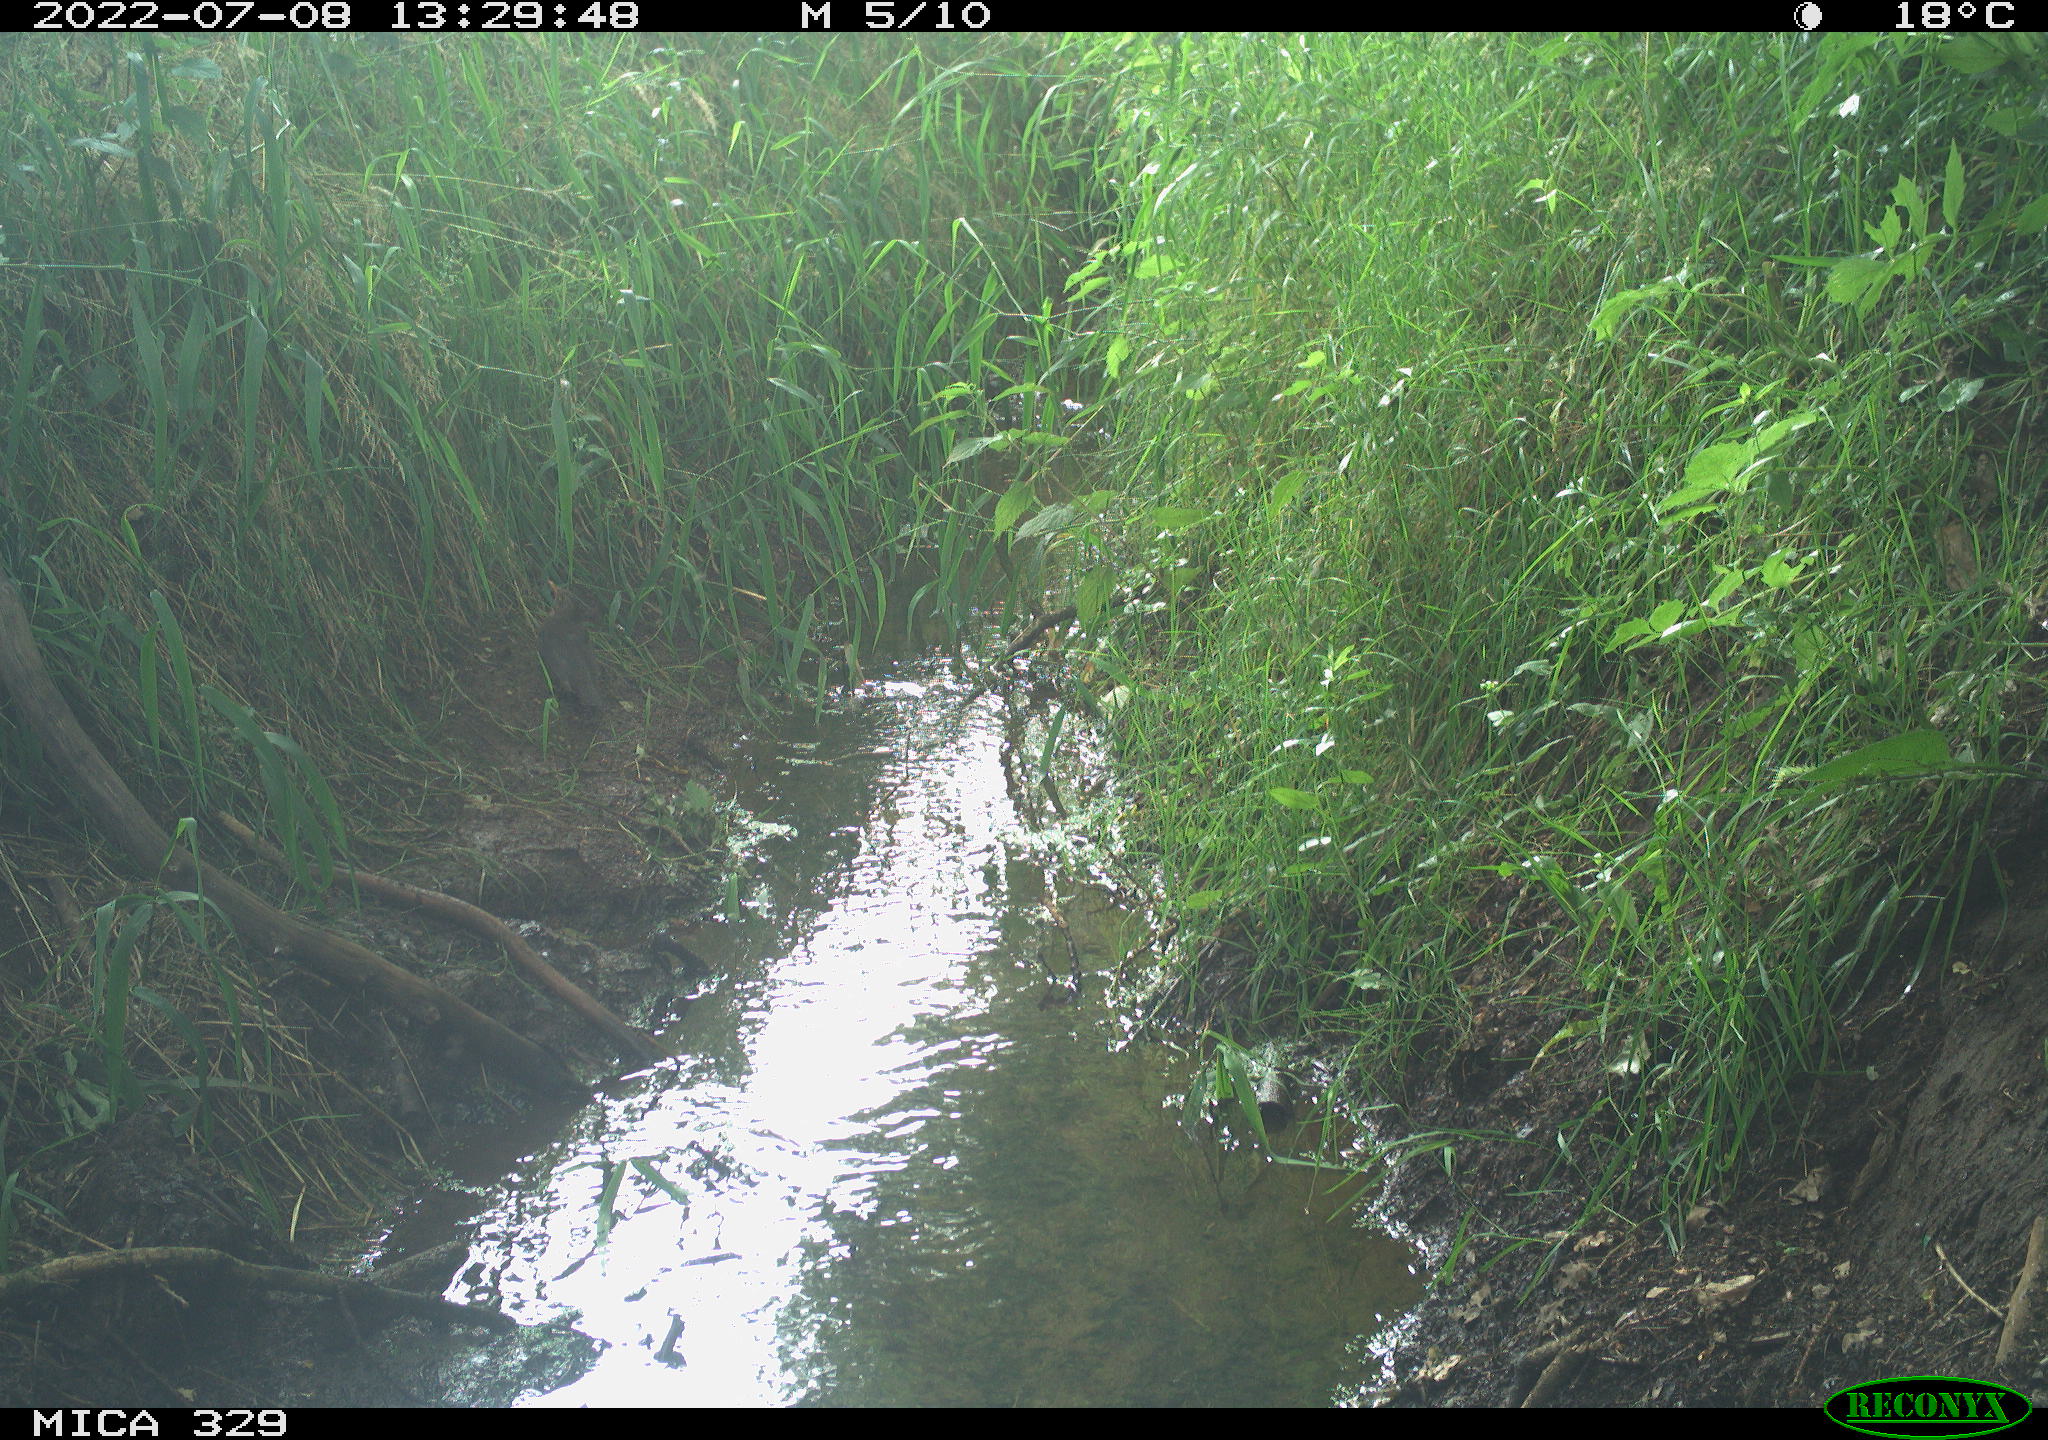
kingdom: Animalia
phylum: Chordata
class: Aves
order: Passeriformes
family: Turdidae
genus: Turdus
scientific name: Turdus merula
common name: Common blackbird
